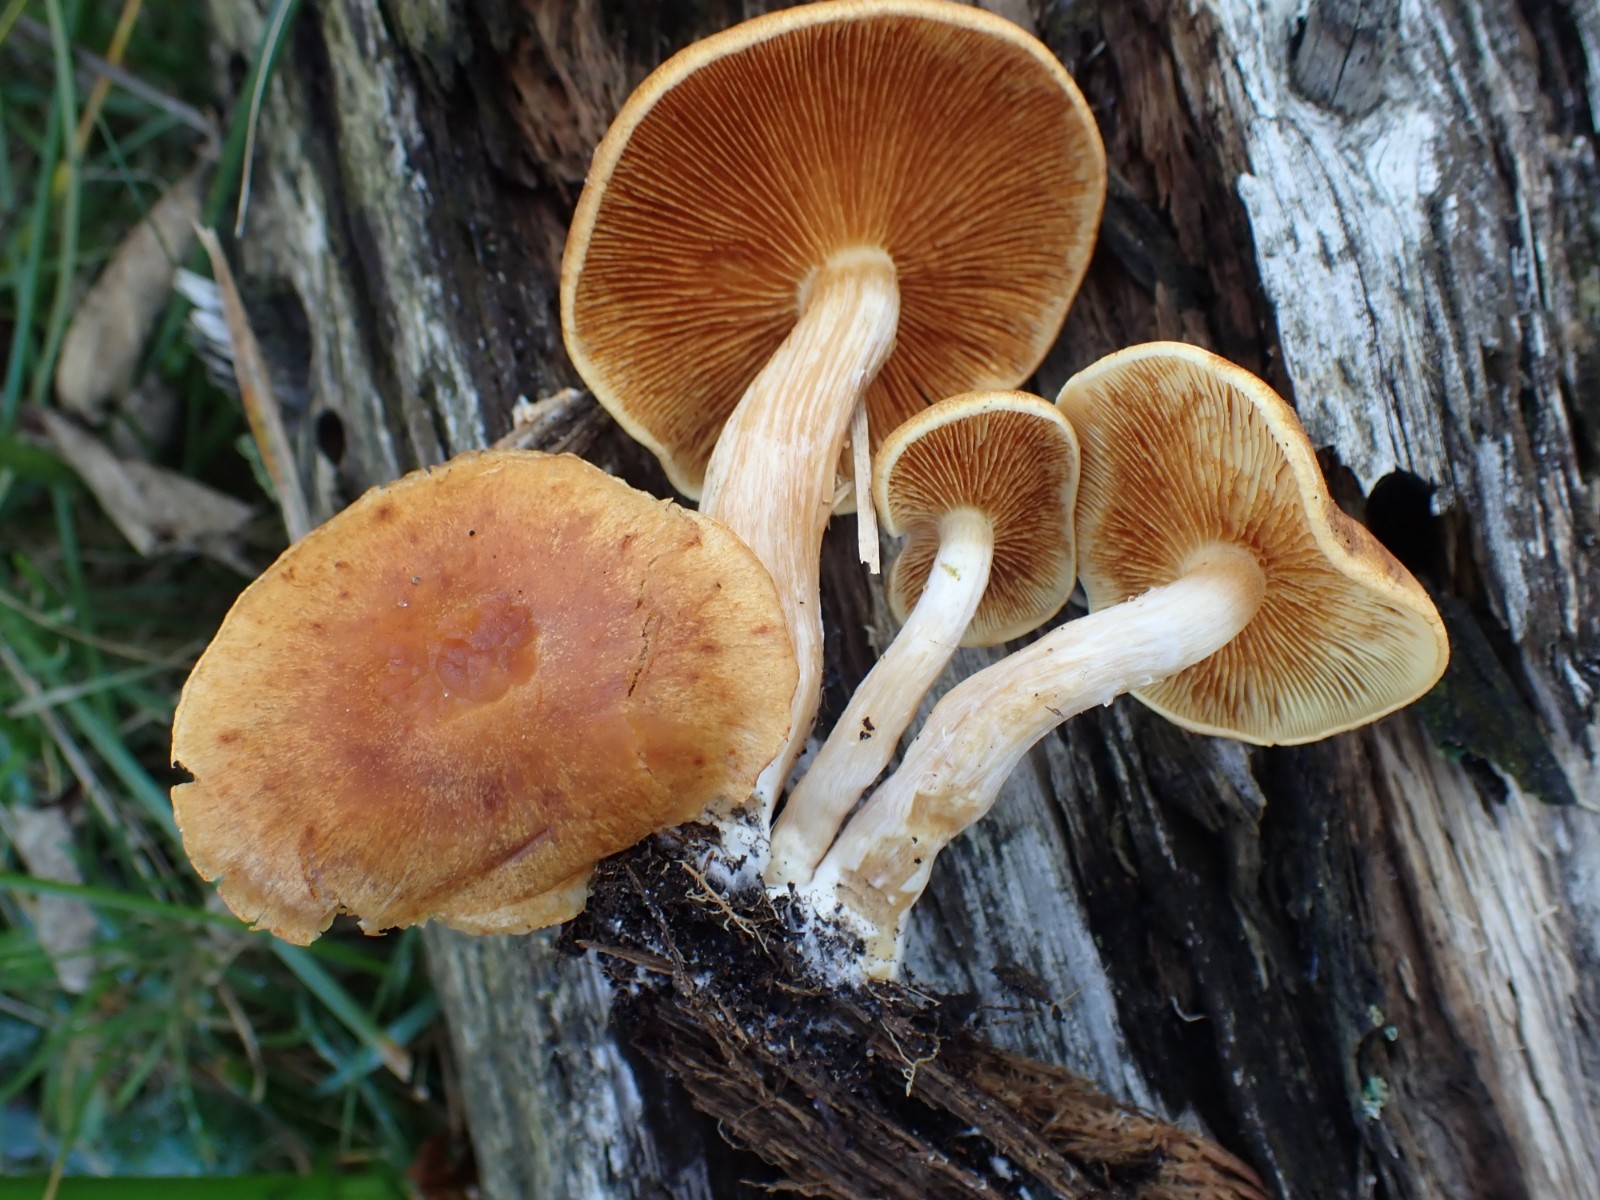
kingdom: Fungi
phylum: Basidiomycota
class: Agaricomycetes
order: Agaricales
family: Hymenogastraceae
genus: Gymnopilus
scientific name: Gymnopilus penetrans
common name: plettet flammehat
